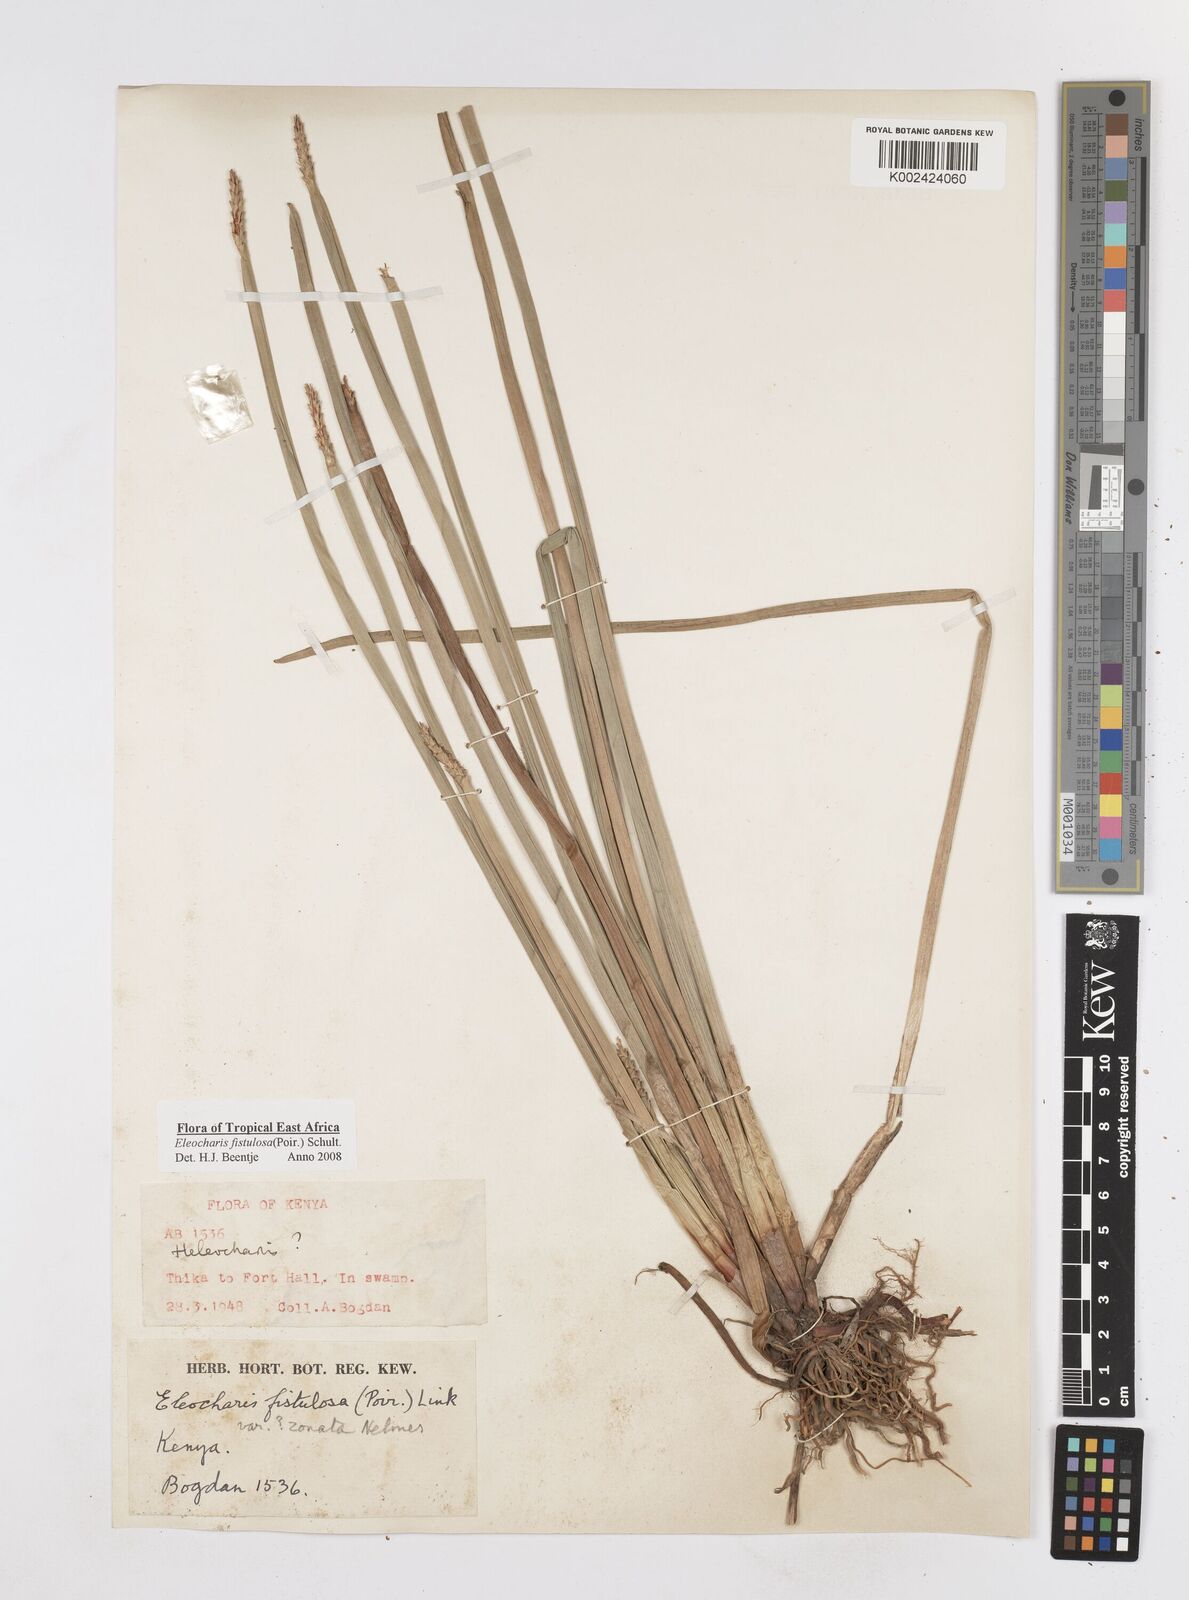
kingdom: Plantae
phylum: Tracheophyta
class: Liliopsida
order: Poales
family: Cyperaceae
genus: Eleocharis
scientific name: Eleocharis acutangula
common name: Acute spikerush
